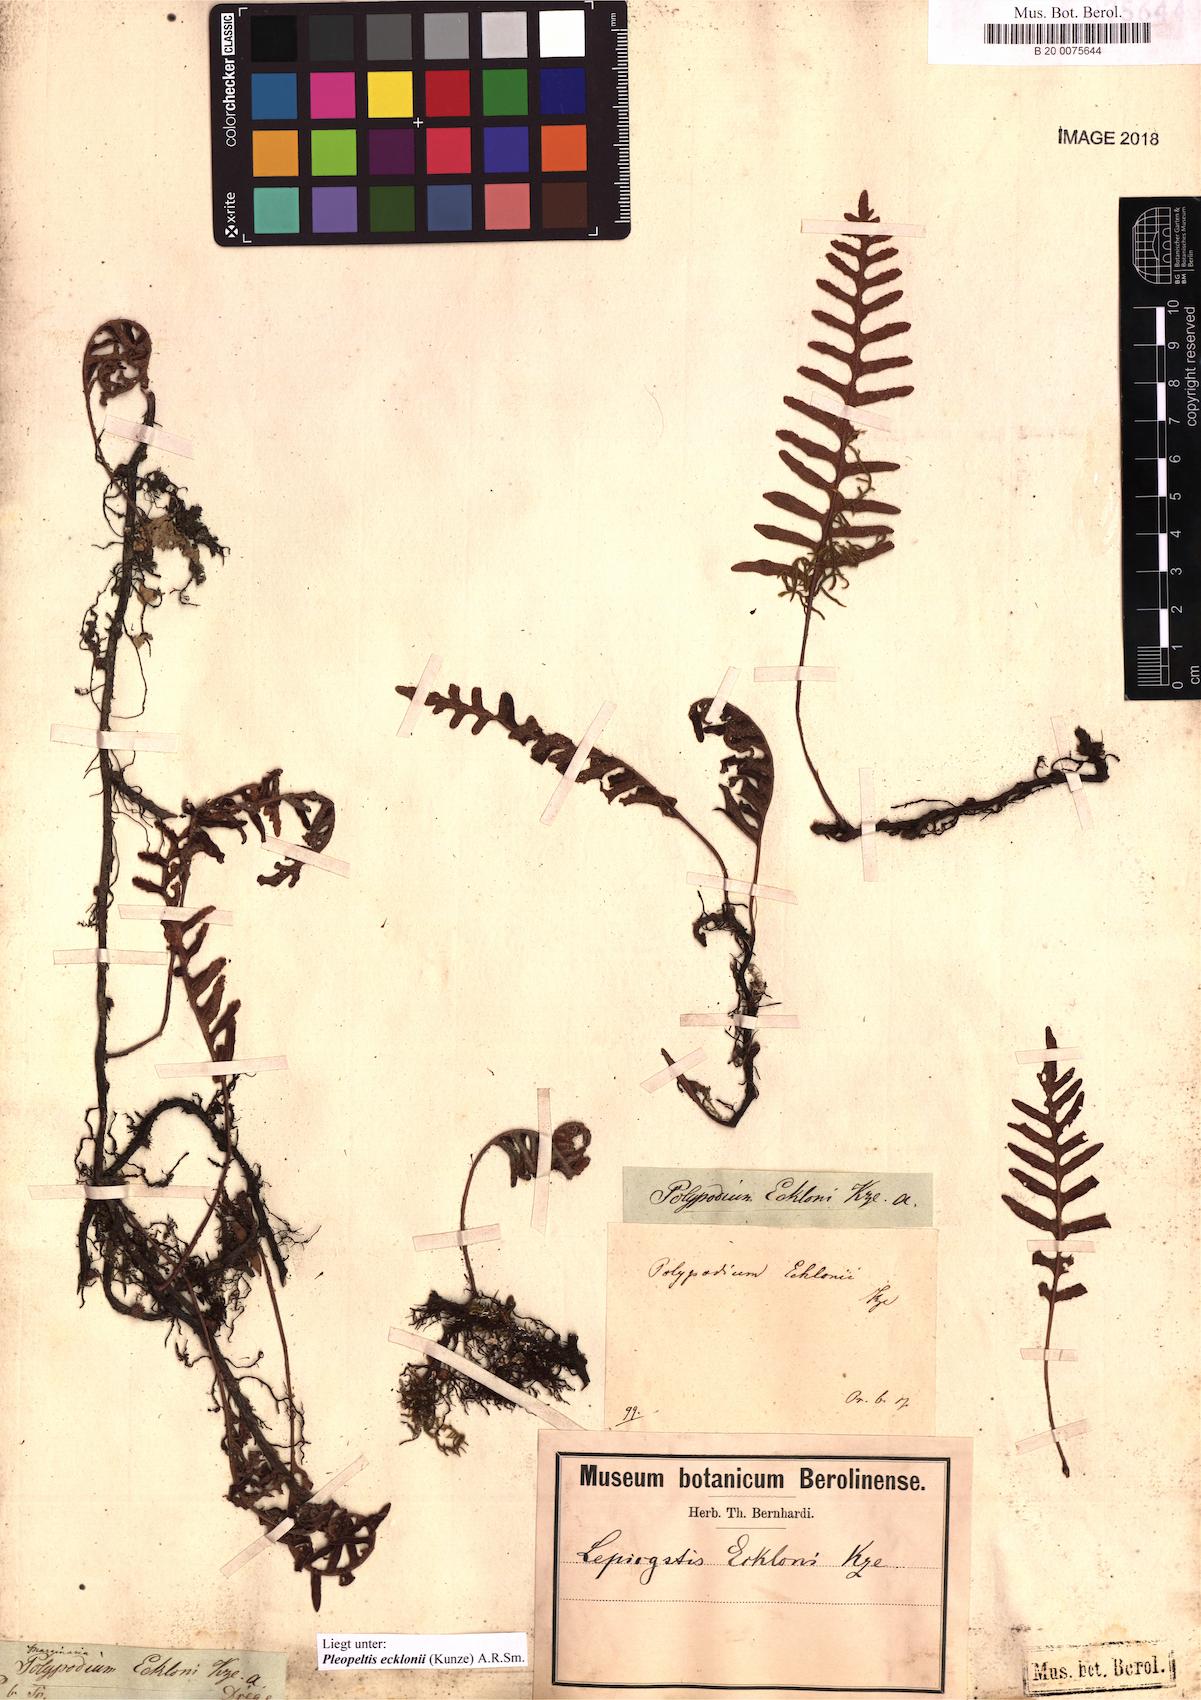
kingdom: Plantae
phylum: Tracheophyta
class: Polypodiopsida
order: Polypodiales
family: Polypodiaceae
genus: Pleopeltis
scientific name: Pleopeltis ecklonii
